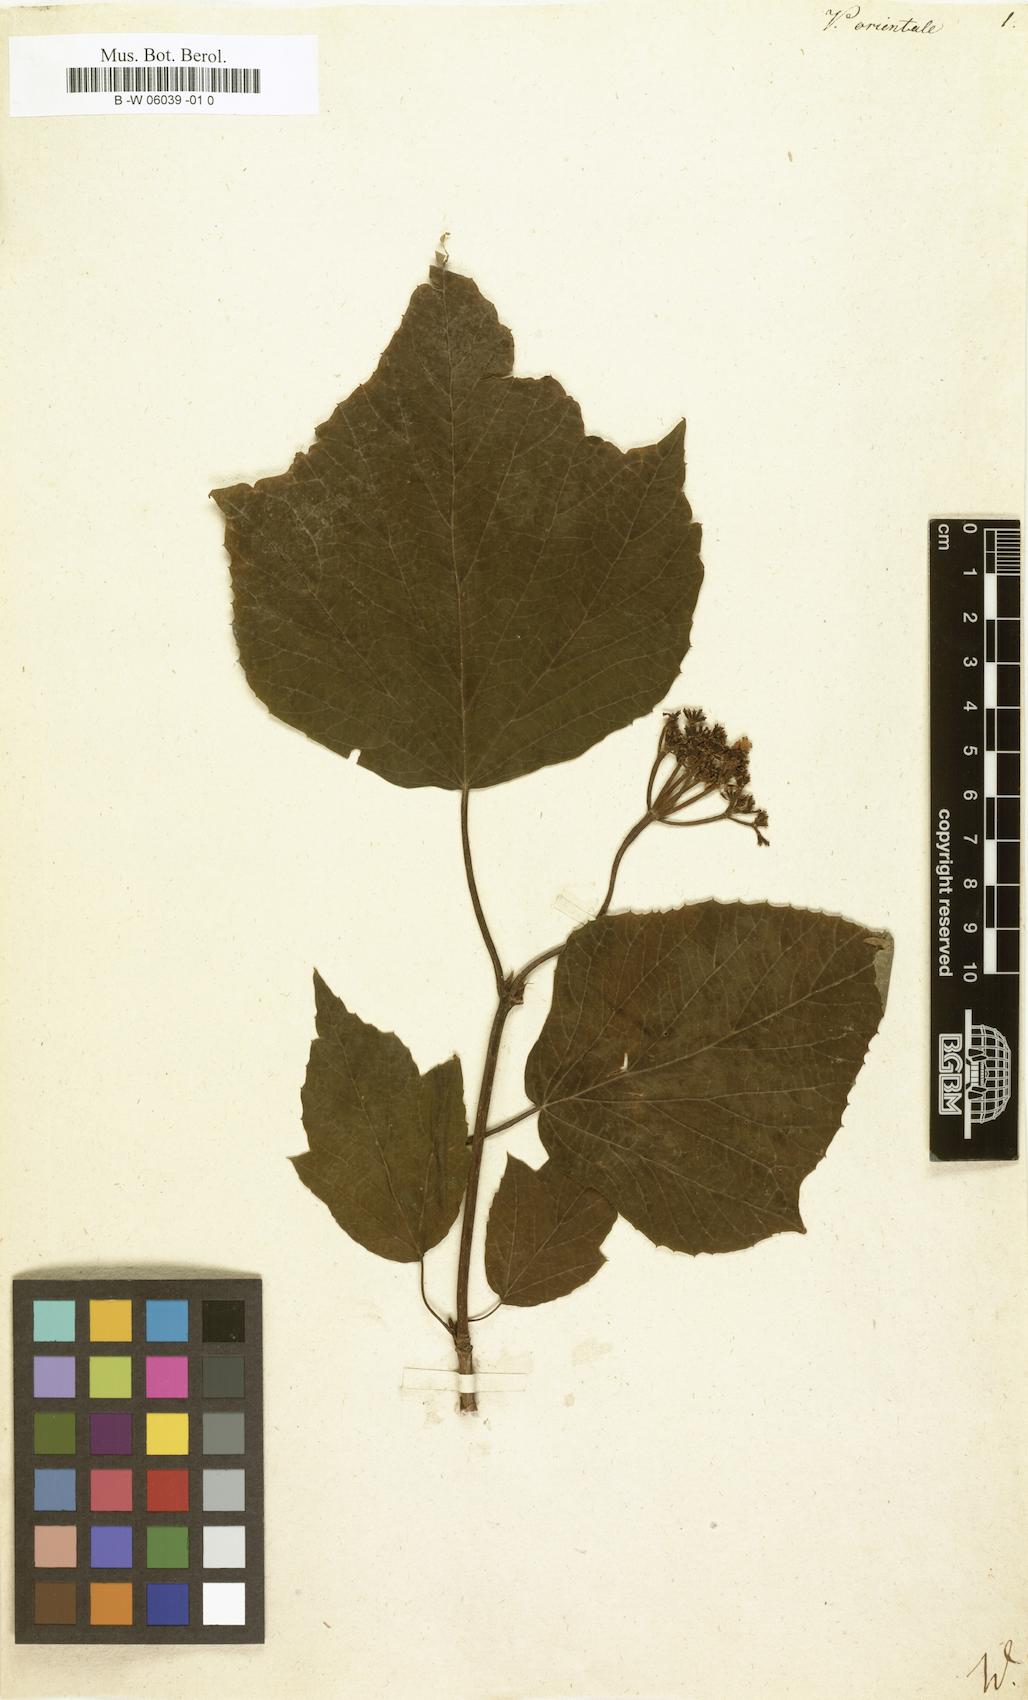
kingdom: Plantae
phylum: Tracheophyta
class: Magnoliopsida
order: Dipsacales
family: Viburnaceae
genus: Viburnum
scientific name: Viburnum orientale
